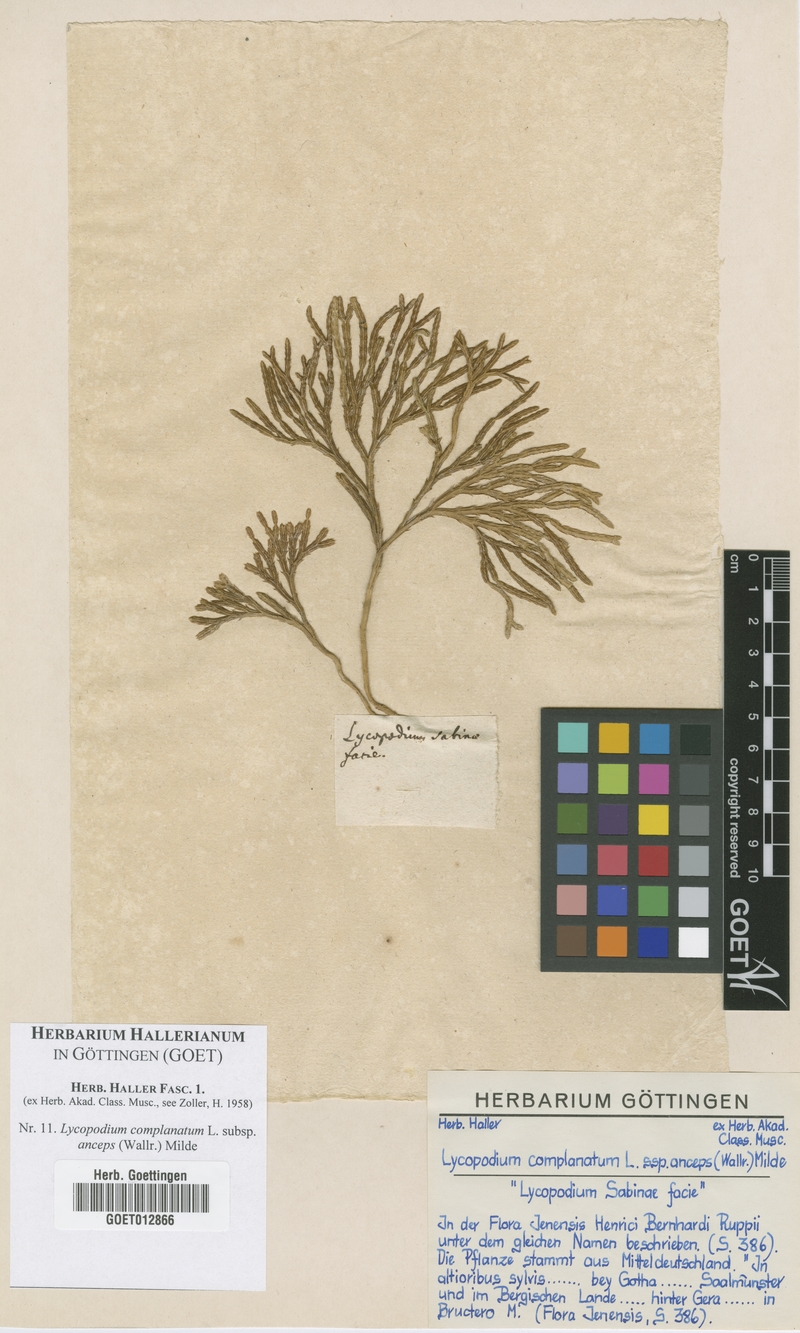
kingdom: Plantae
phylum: Tracheophyta
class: Lycopodiopsida
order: Lycopodiales
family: Lycopodiaceae
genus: Diphasiastrum
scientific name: Diphasiastrum complanatum
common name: Northern running-pine
